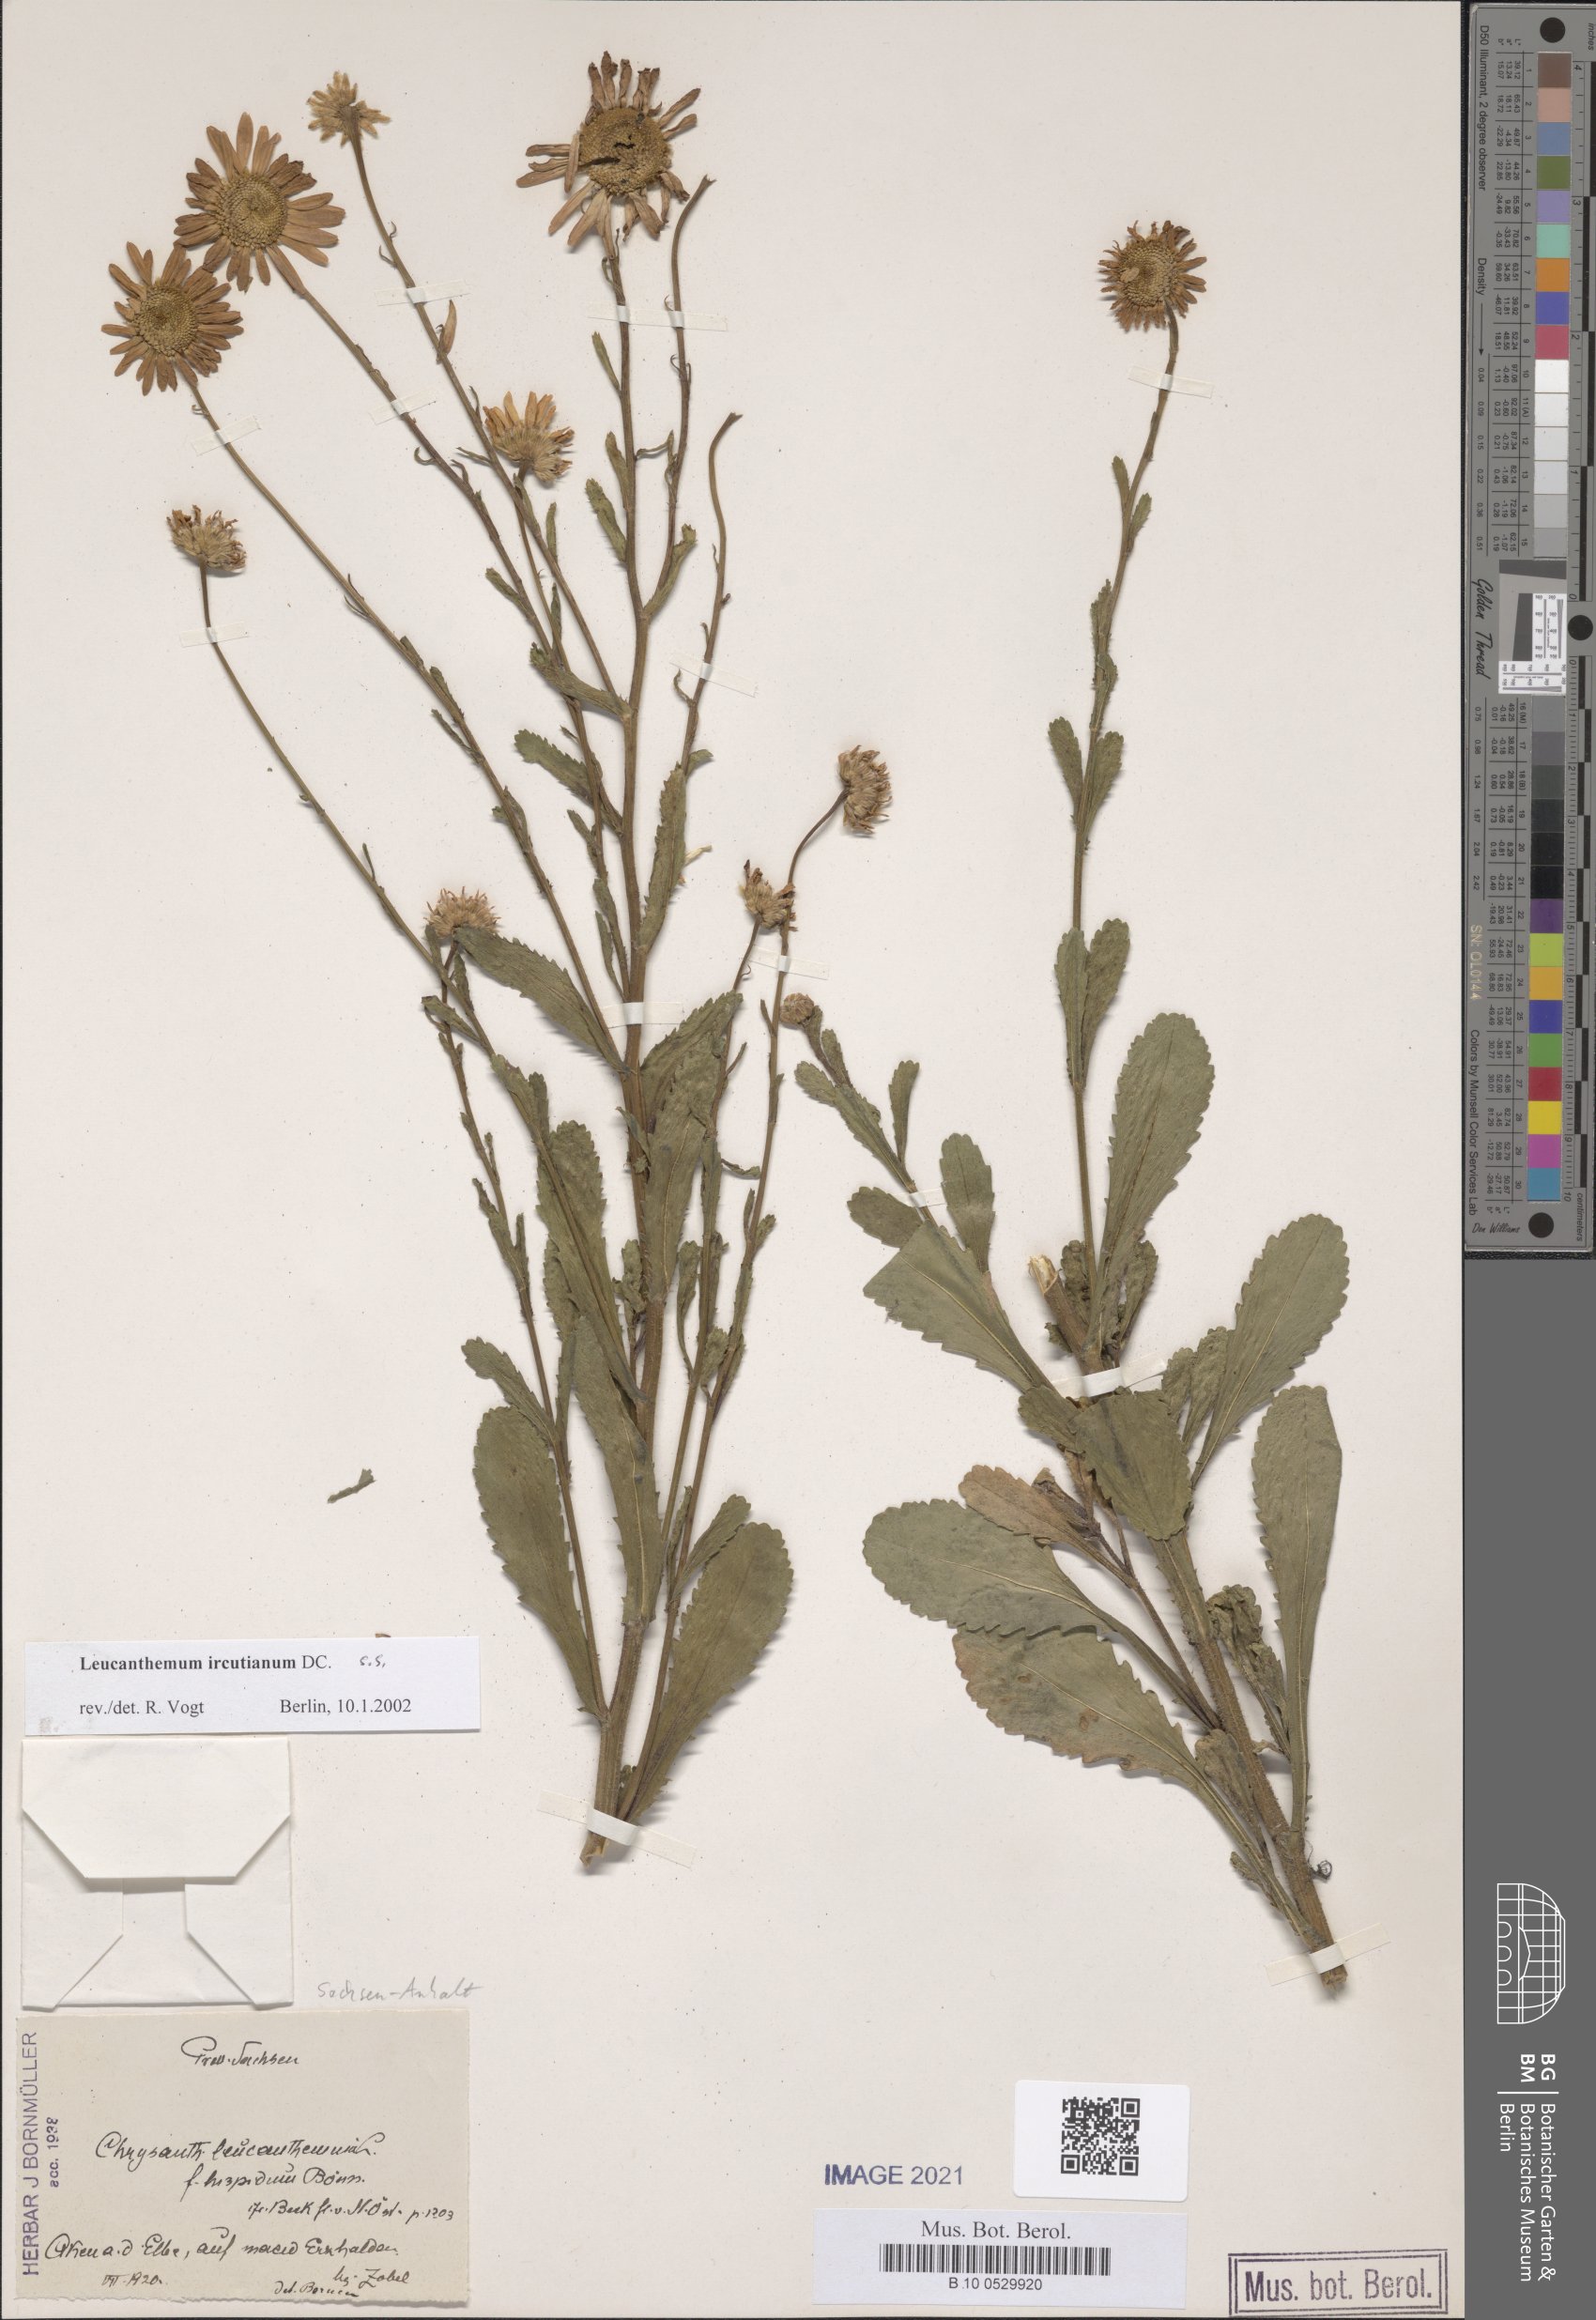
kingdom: Plantae
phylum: Tracheophyta
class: Magnoliopsida
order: Asterales
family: Asteraceae
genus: Leucanthemum
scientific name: Leucanthemum ircutianum
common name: Daisy
